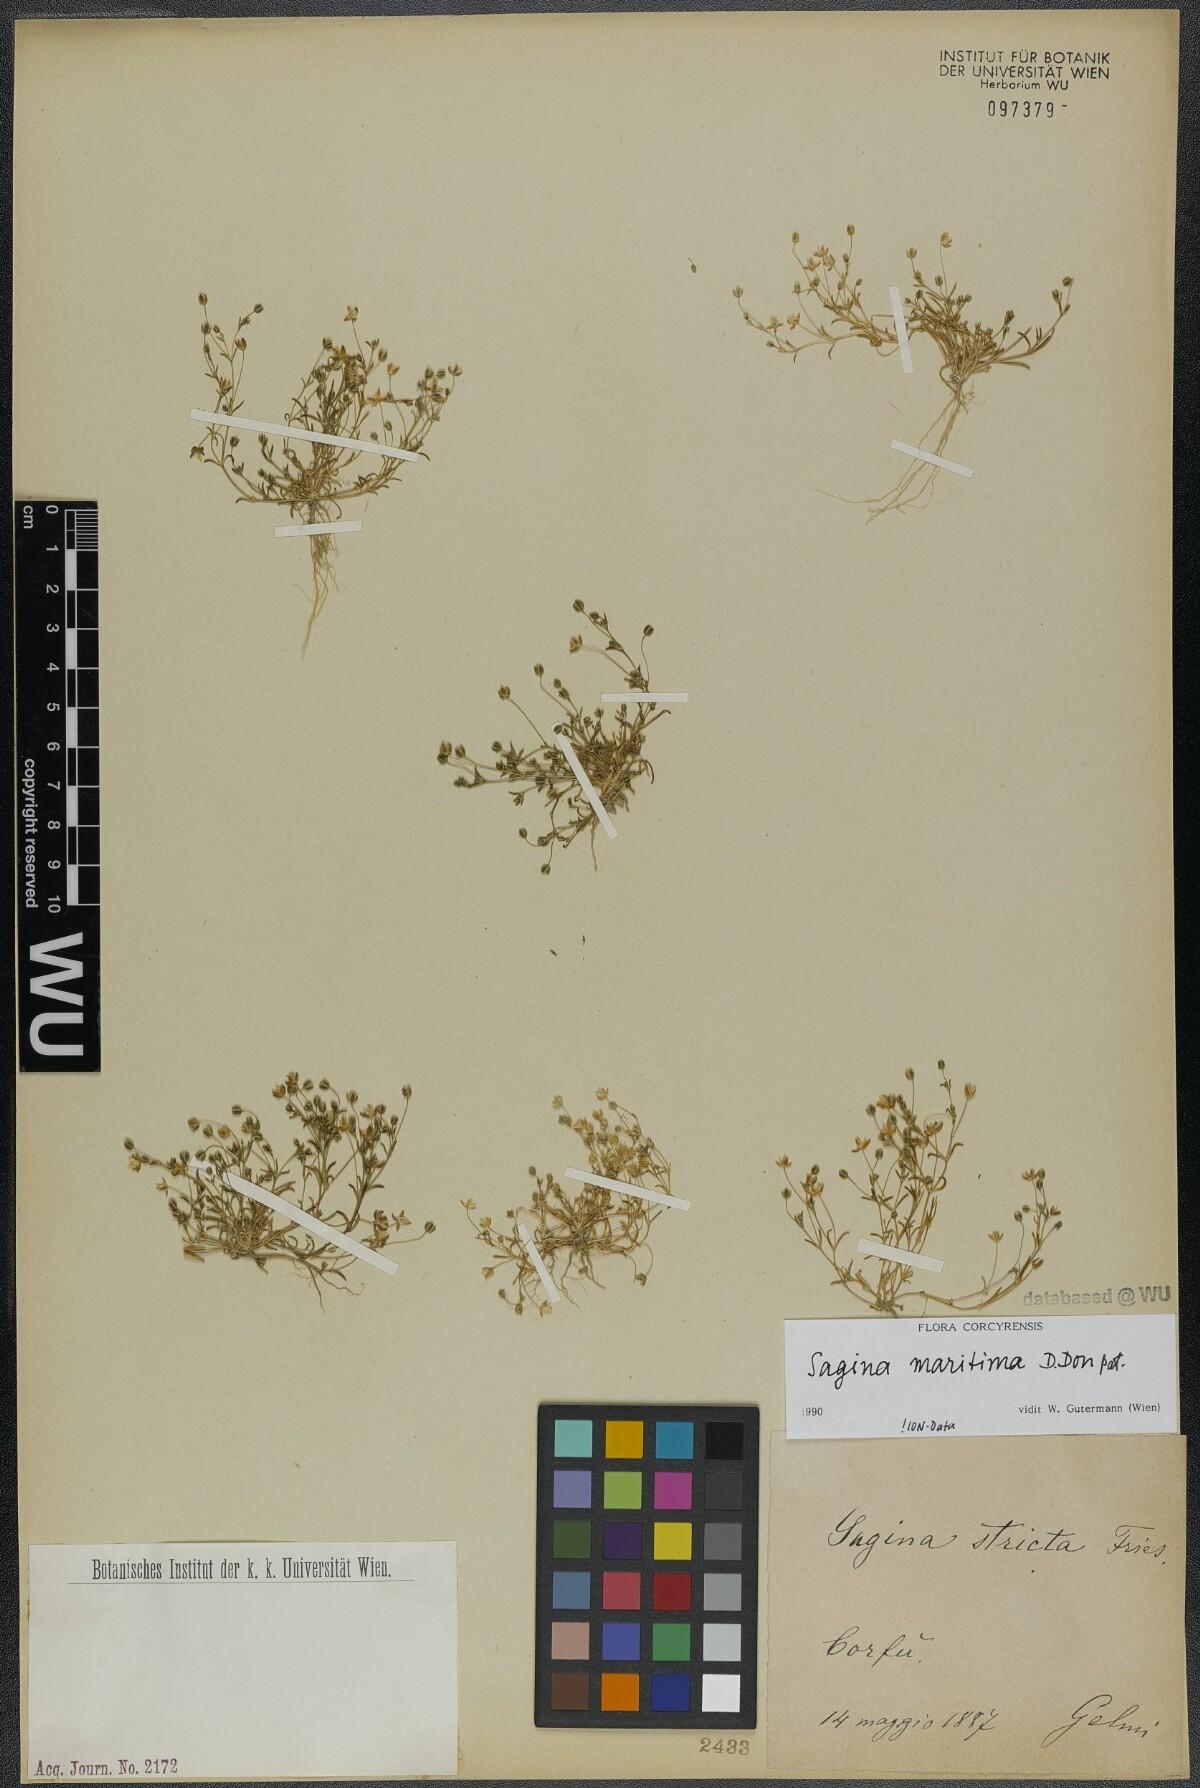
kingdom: Plantae
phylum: Tracheophyta
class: Magnoliopsida
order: Caryophyllales
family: Caryophyllaceae
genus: Sagina
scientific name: Sagina maritima
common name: Sea pearlwort
